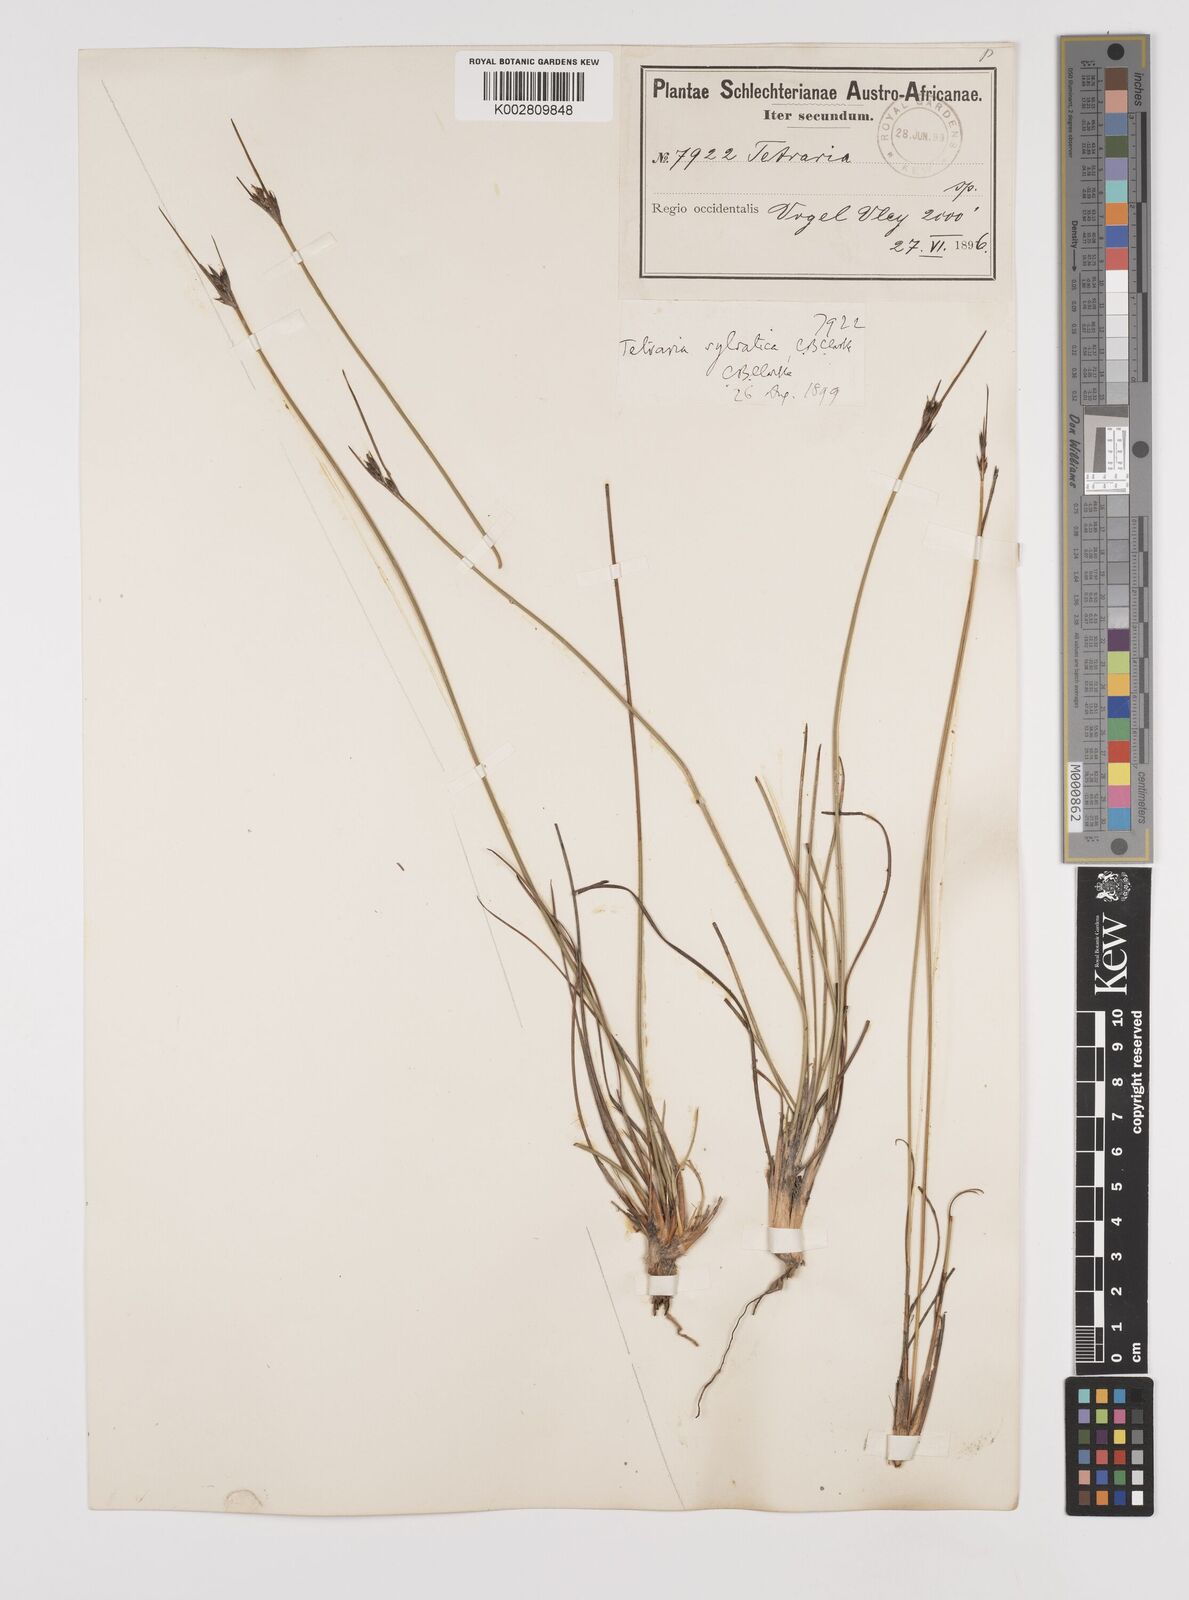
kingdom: Plantae
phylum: Tracheophyta
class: Liliopsida
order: Poales
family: Cyperaceae
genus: Schoenus
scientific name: Schoenus pseudoloreus
